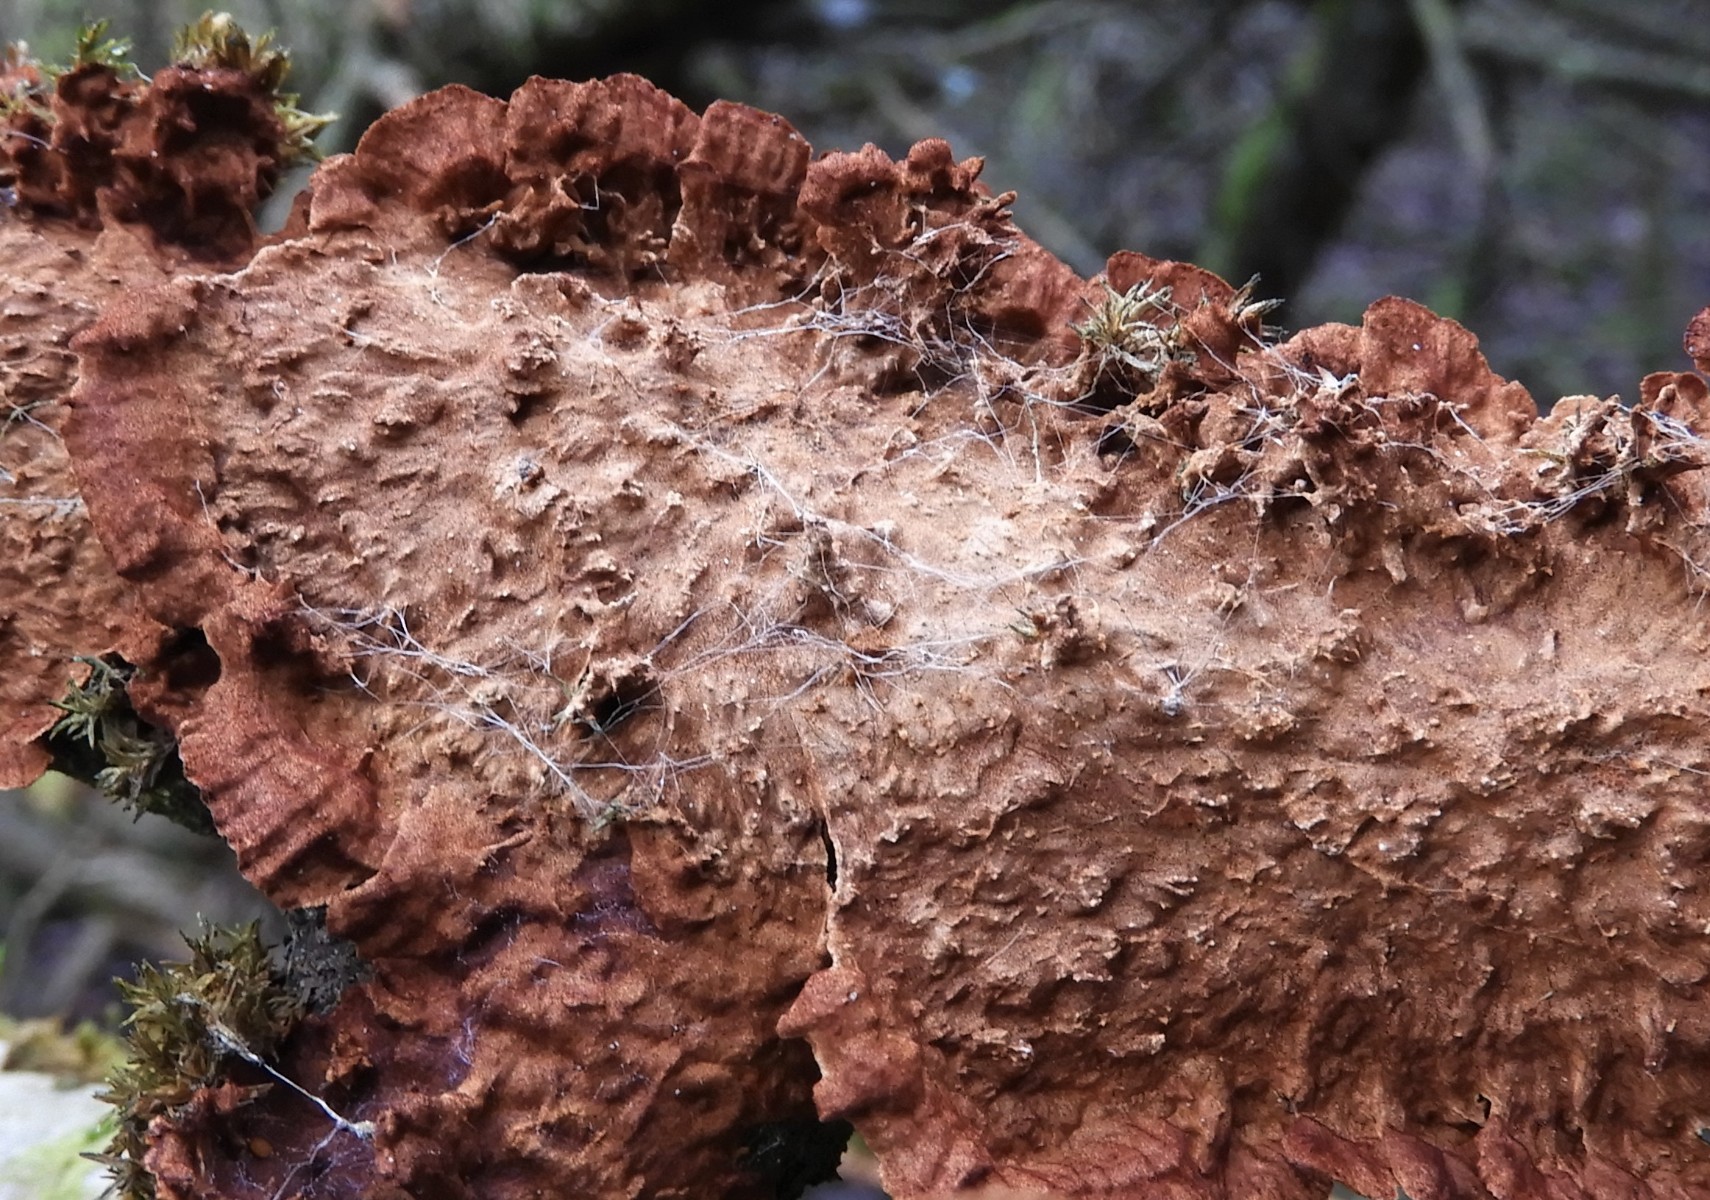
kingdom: Fungi
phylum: Basidiomycota
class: Agaricomycetes
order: Hymenochaetales
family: Hymenochaetaceae
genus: Hydnoporia
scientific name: Hydnoporia tabacina
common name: tobaksbrun ruslædersvamp
